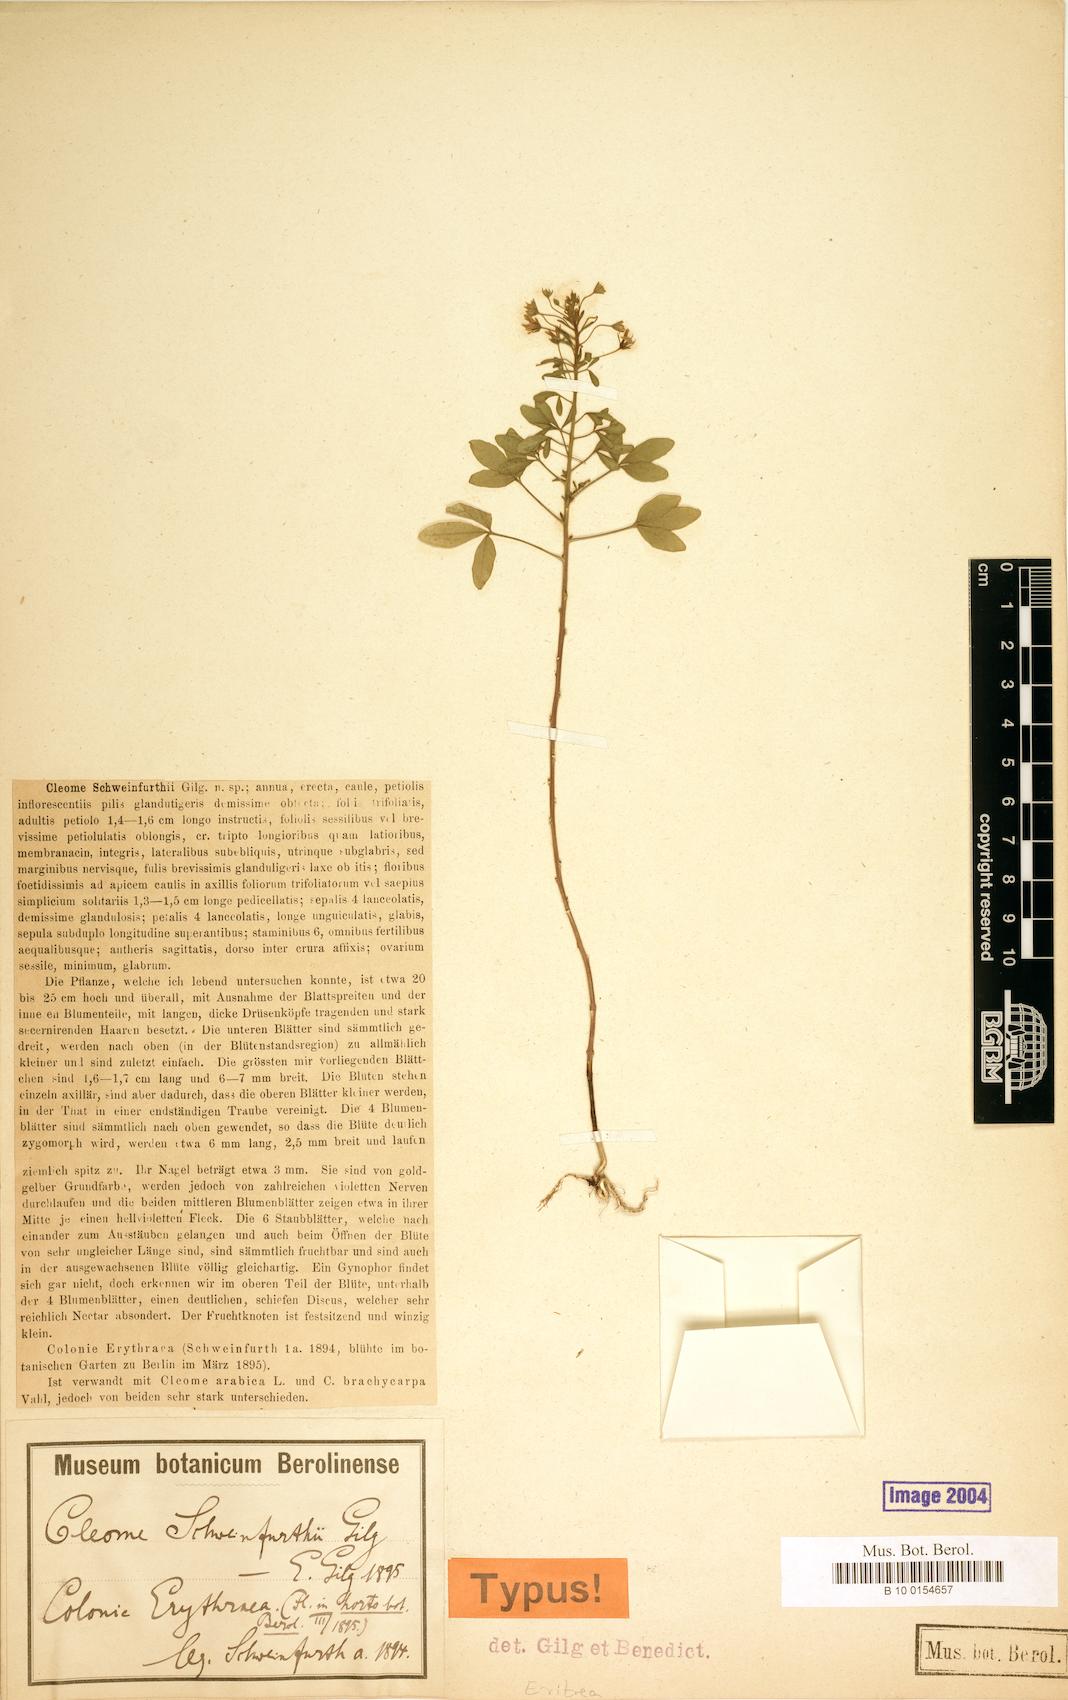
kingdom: Plantae
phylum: Tracheophyta
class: Magnoliopsida
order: Brassicales
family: Cleomaceae
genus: Cleome
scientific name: Cleome ramosissima
